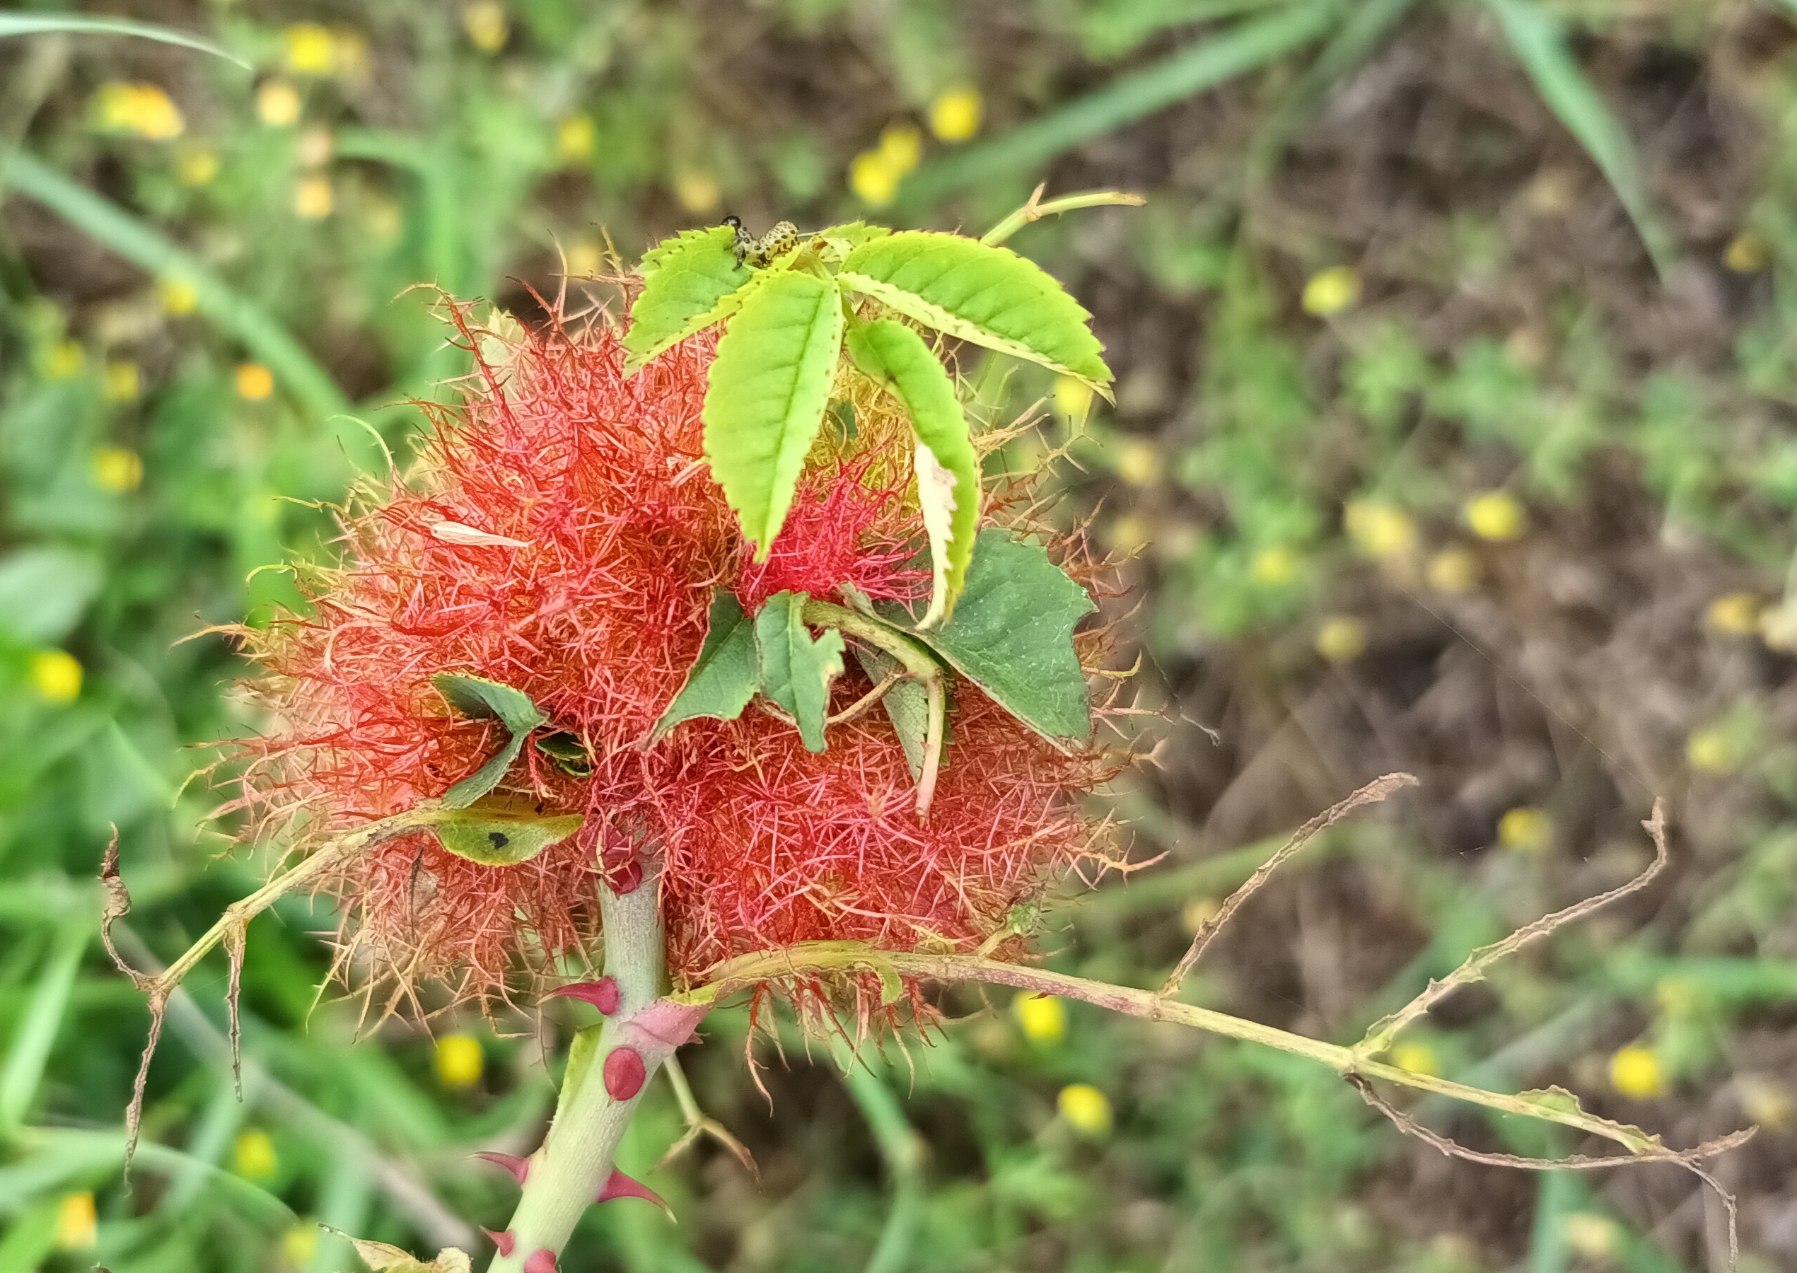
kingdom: Animalia
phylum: Arthropoda
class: Insecta
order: Hymenoptera
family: Cynipidae
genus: Diplolepis
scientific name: Diplolepis rosae
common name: Bedeguargalhveps
